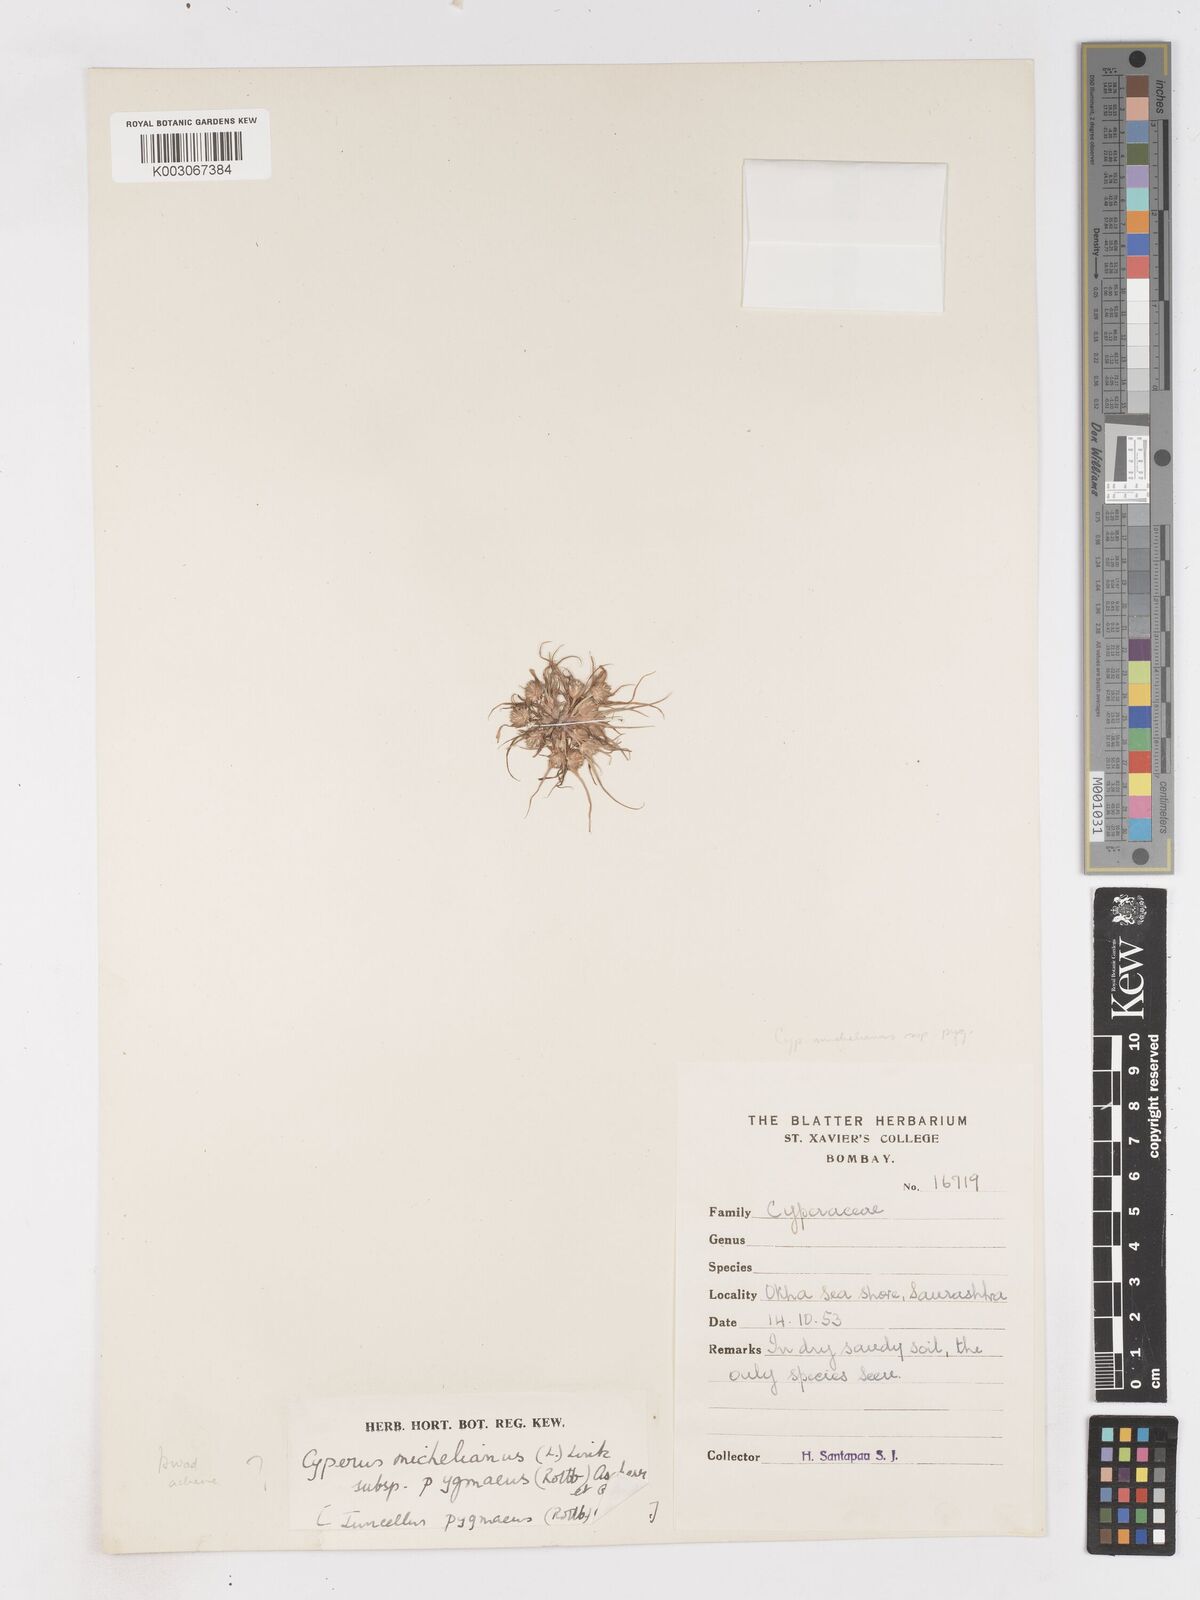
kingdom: Plantae
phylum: Tracheophyta
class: Liliopsida
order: Poales
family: Cyperaceae
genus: Cyperus
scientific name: Cyperus michelianus
